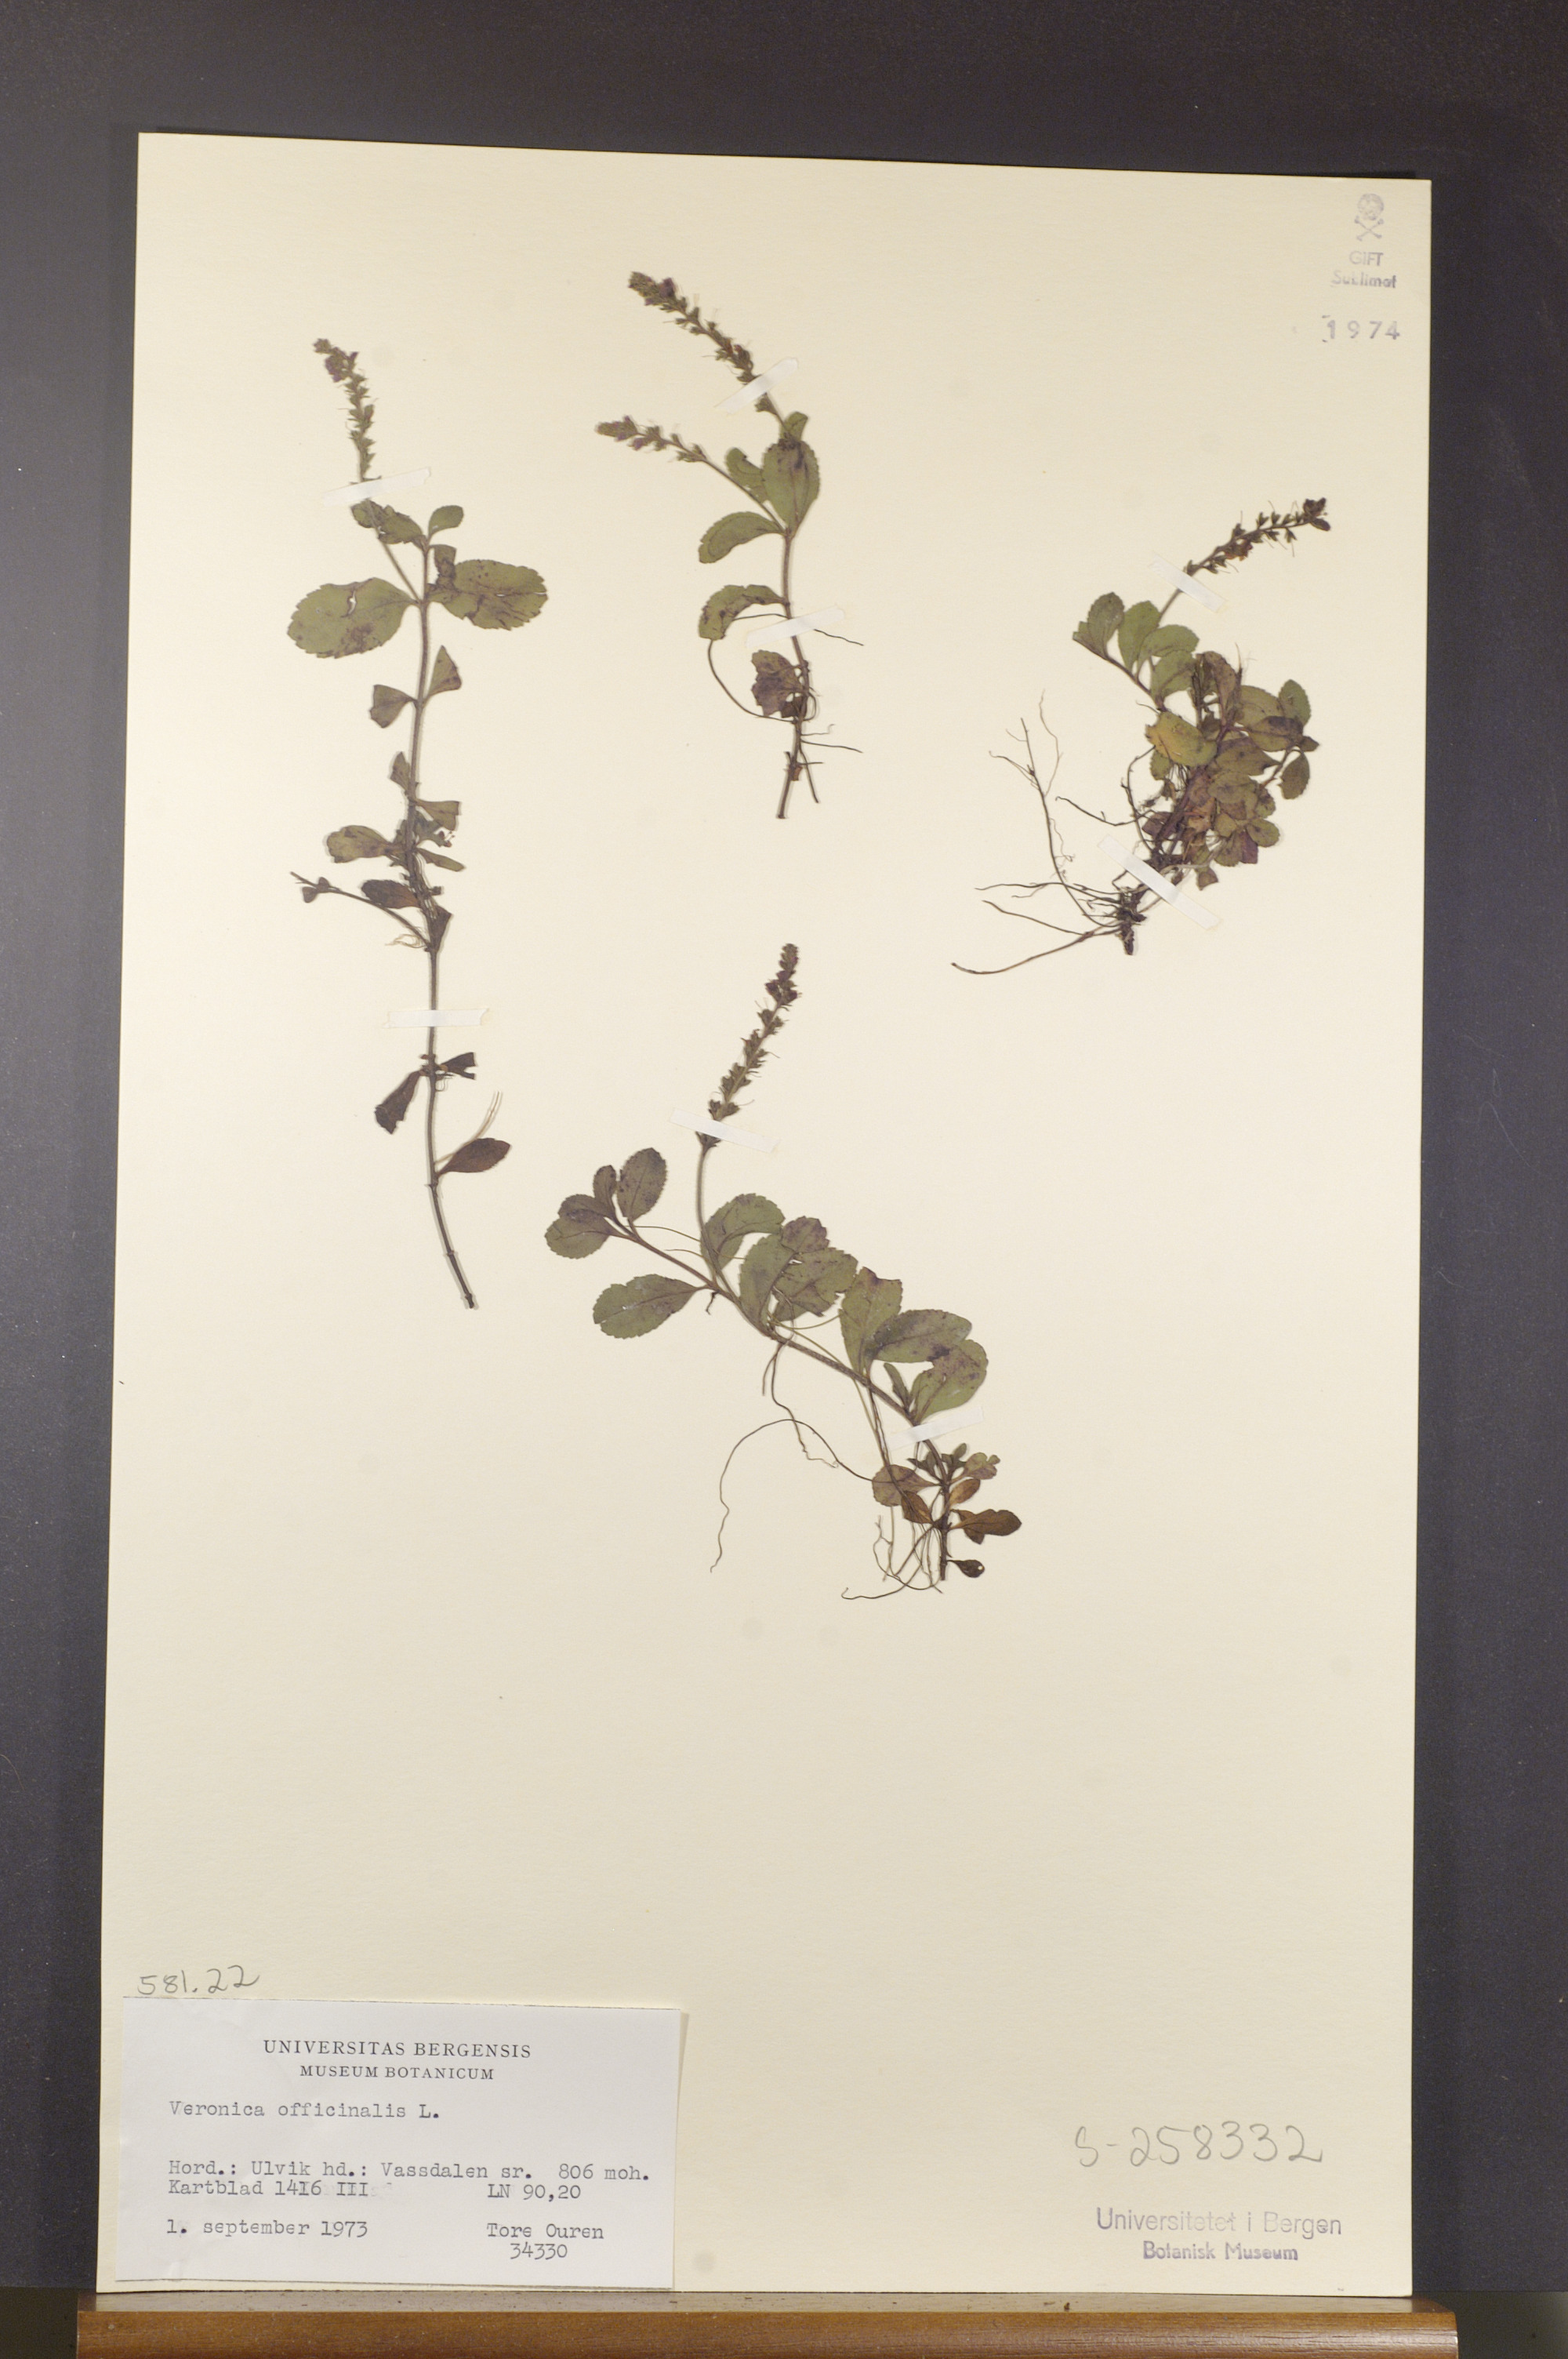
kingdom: Plantae
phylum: Tracheophyta
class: Magnoliopsida
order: Lamiales
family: Plantaginaceae
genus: Veronica
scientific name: Veronica officinalis
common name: Common speedwell
